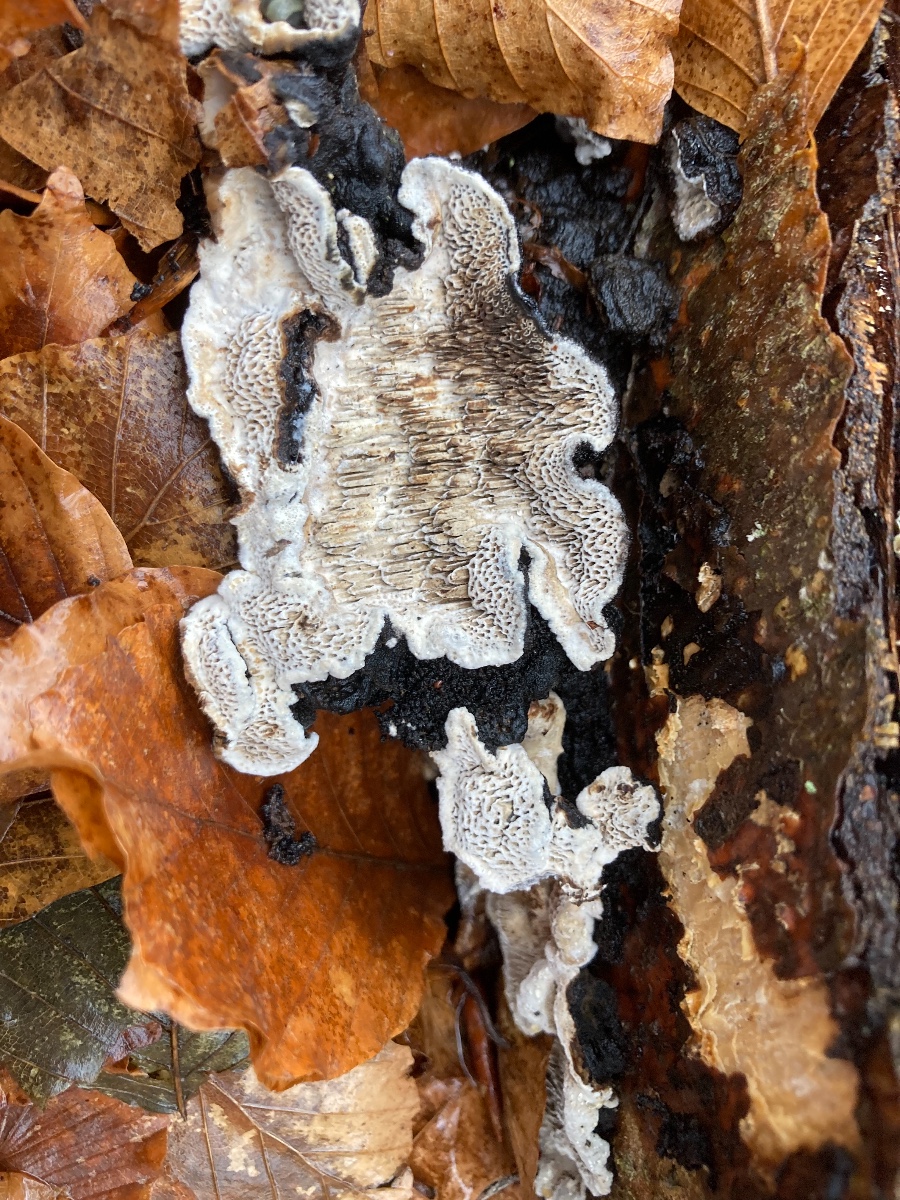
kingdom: Fungi
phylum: Basidiomycota
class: Agaricomycetes
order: Polyporales
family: Polyporaceae
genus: Podofomes
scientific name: Podofomes mollis
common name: blød begporesvamp
